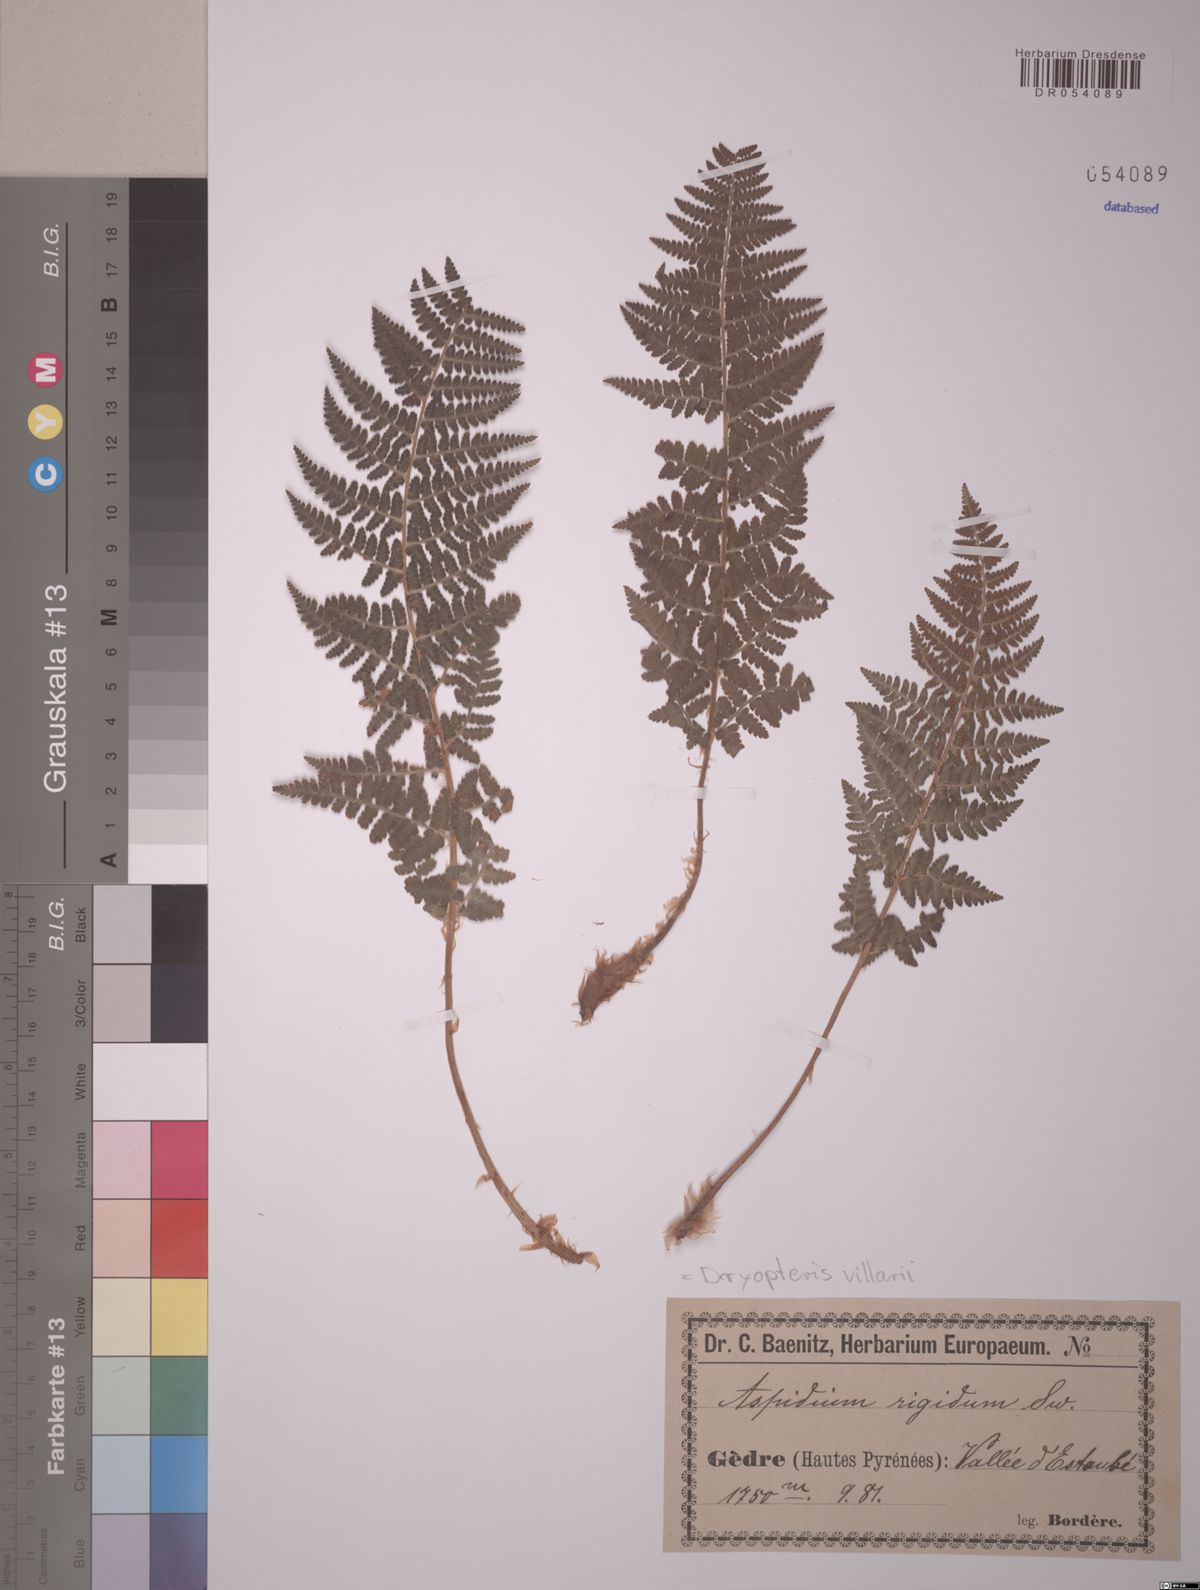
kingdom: Plantae
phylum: Tracheophyta
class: Polypodiopsida
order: Polypodiales
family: Dryopteridaceae
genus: Dryopteris
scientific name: Dryopteris villarii
